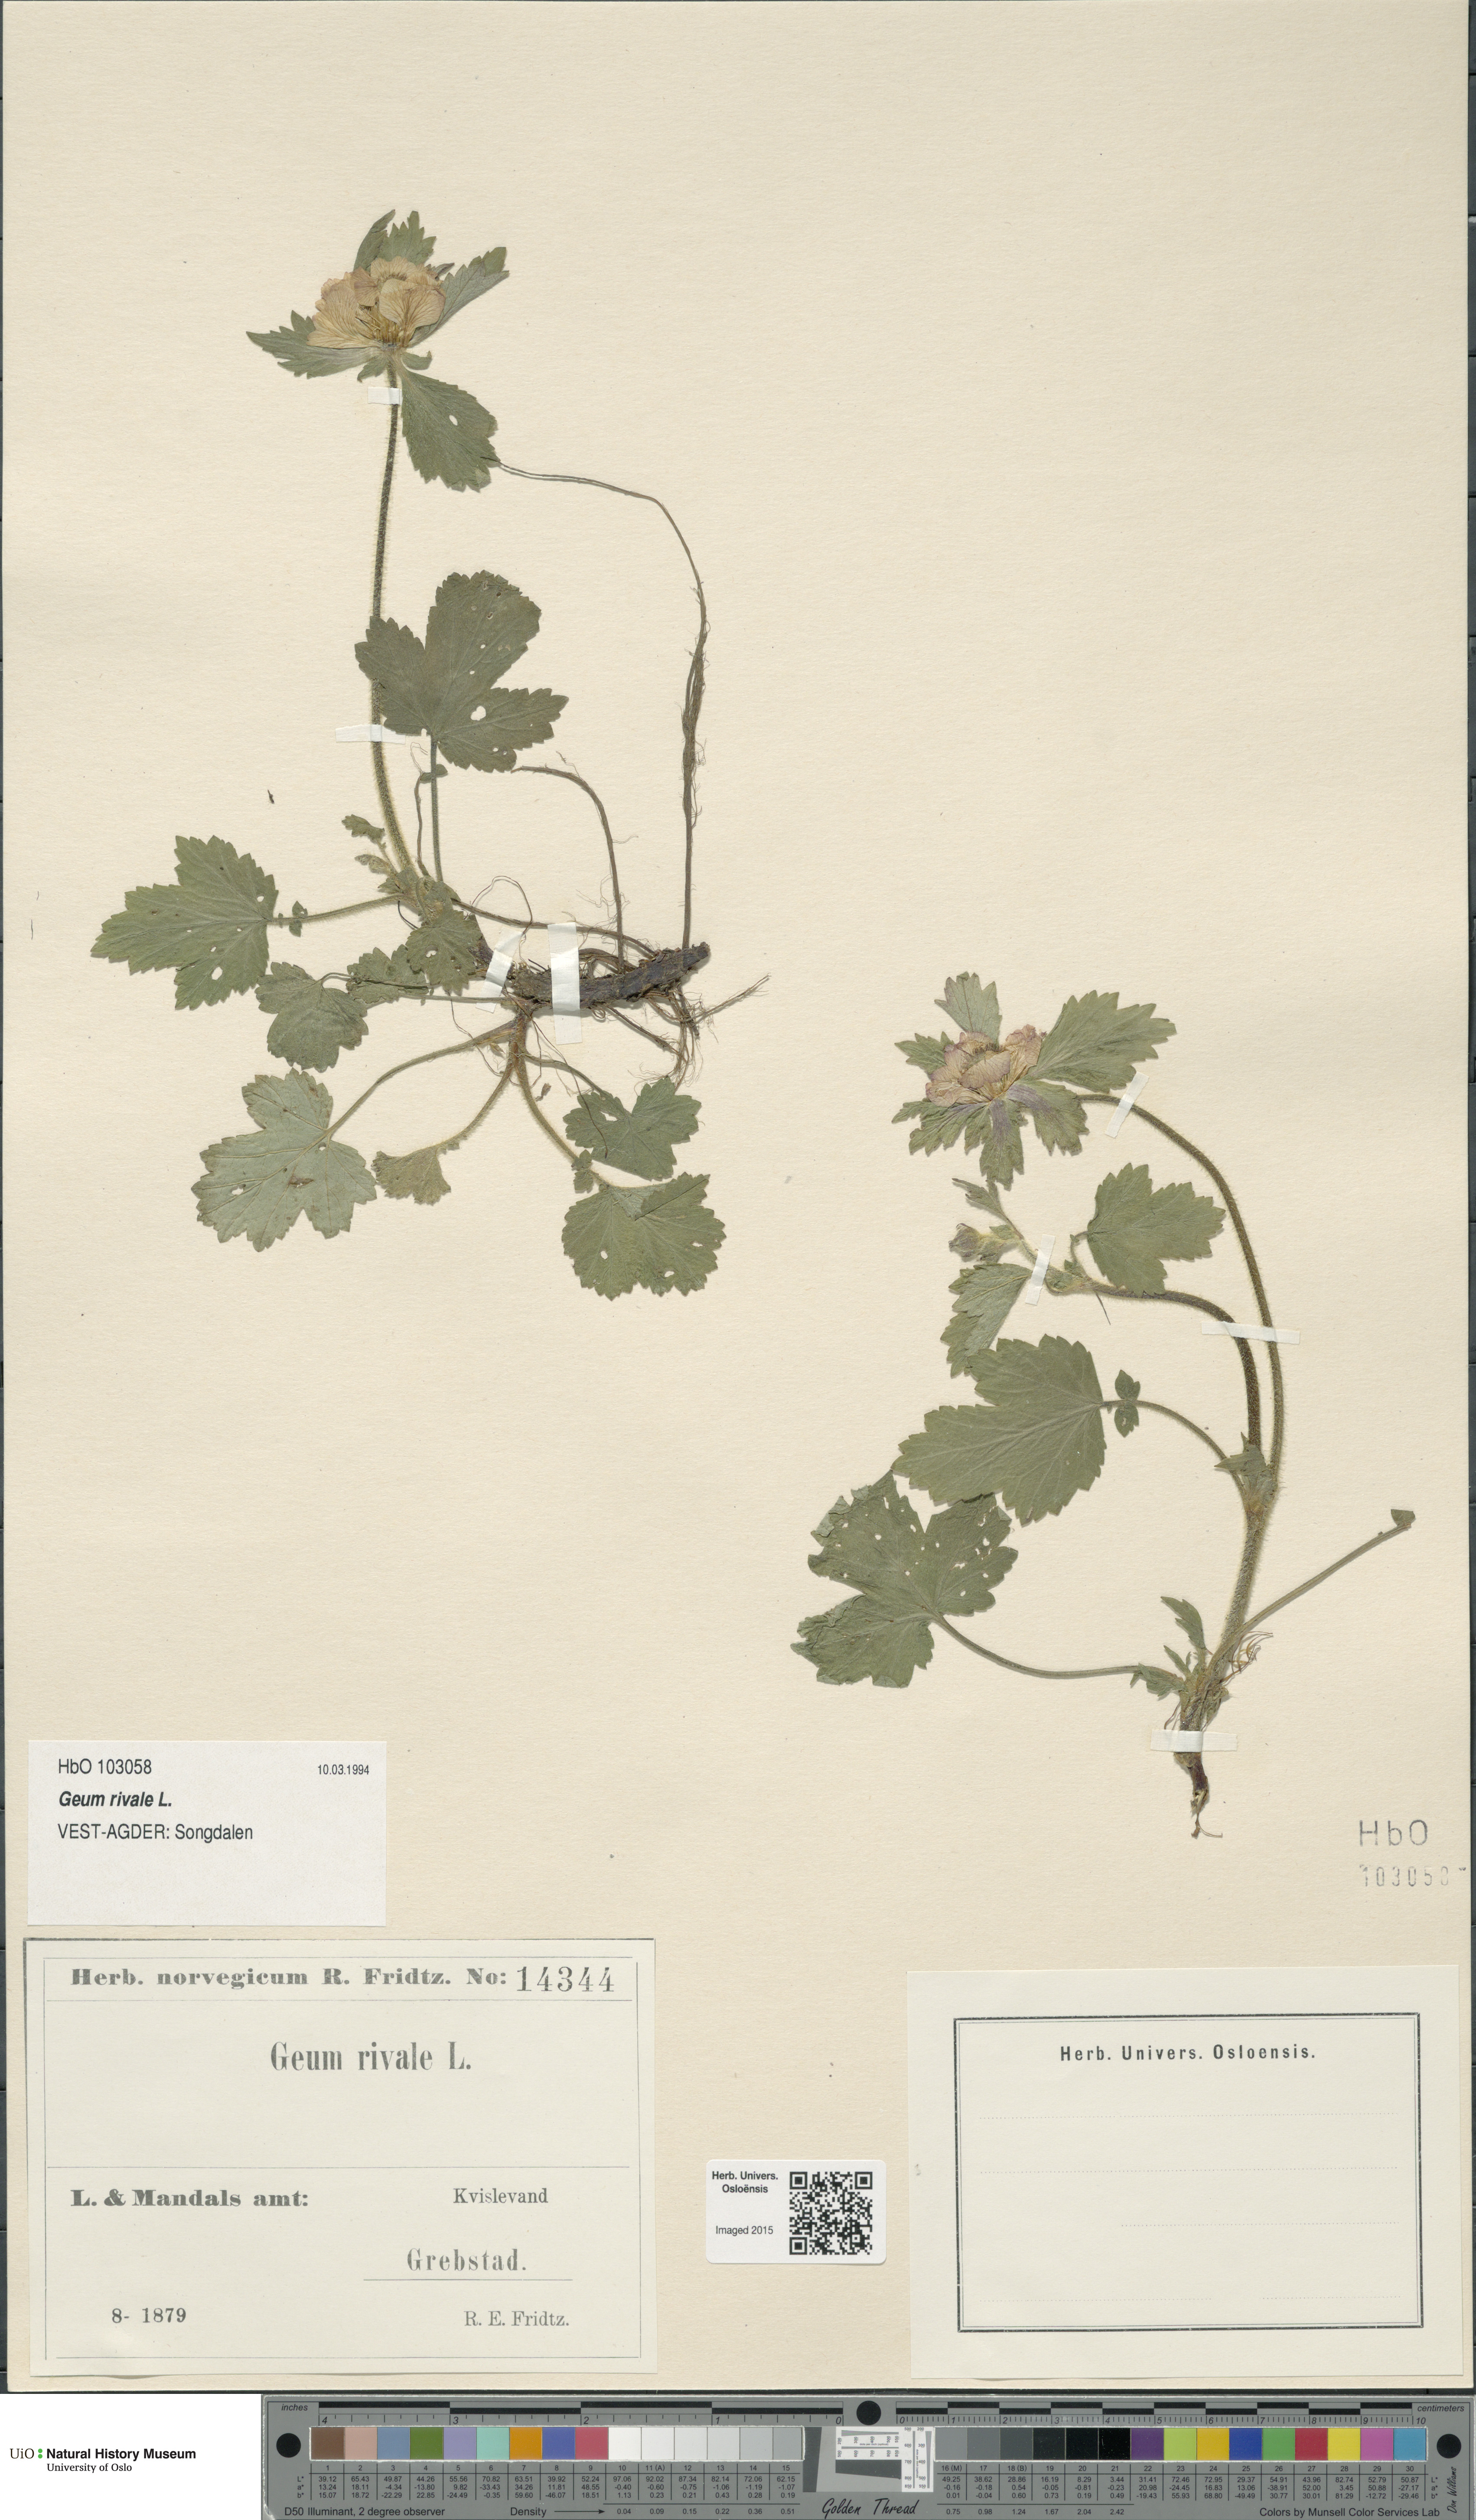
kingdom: Plantae
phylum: Tracheophyta
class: Magnoliopsida
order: Rosales
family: Rosaceae
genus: Geum
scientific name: Geum rivale
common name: Water avens
